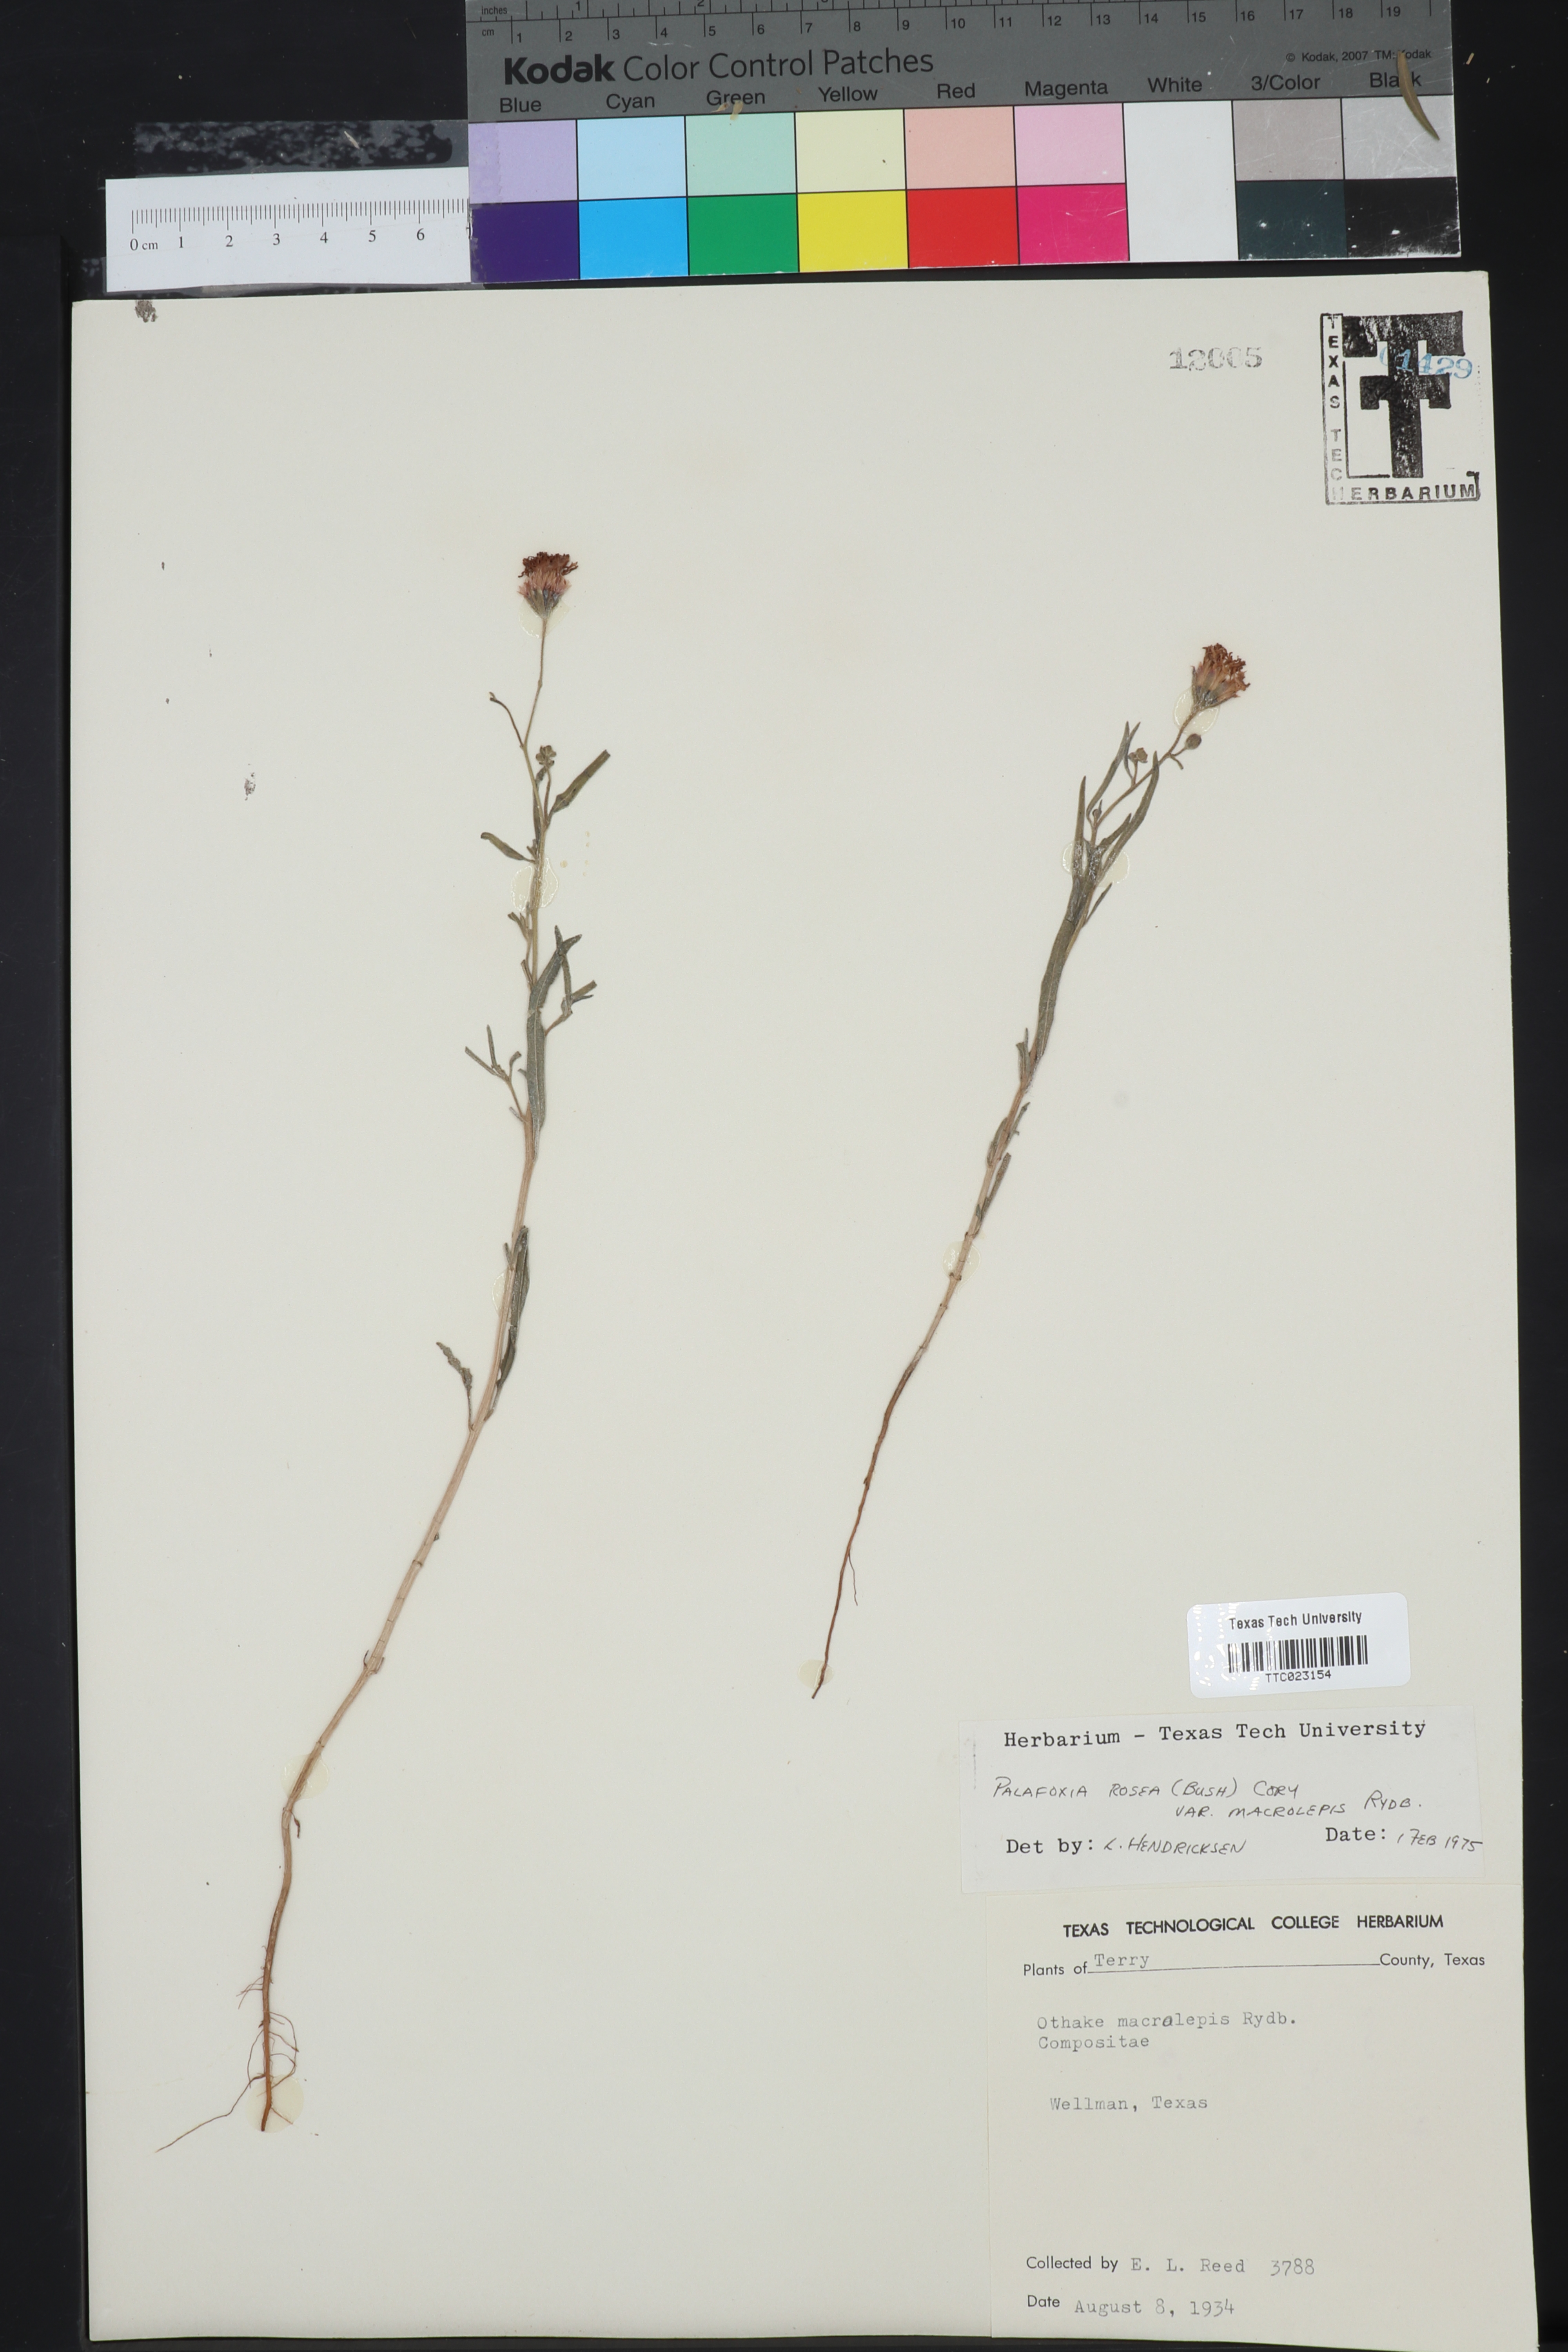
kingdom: Plantae
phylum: Tracheophyta
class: Magnoliopsida
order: Asterales
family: Asteraceae
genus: Palafoxia
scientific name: Palafoxia rosea
